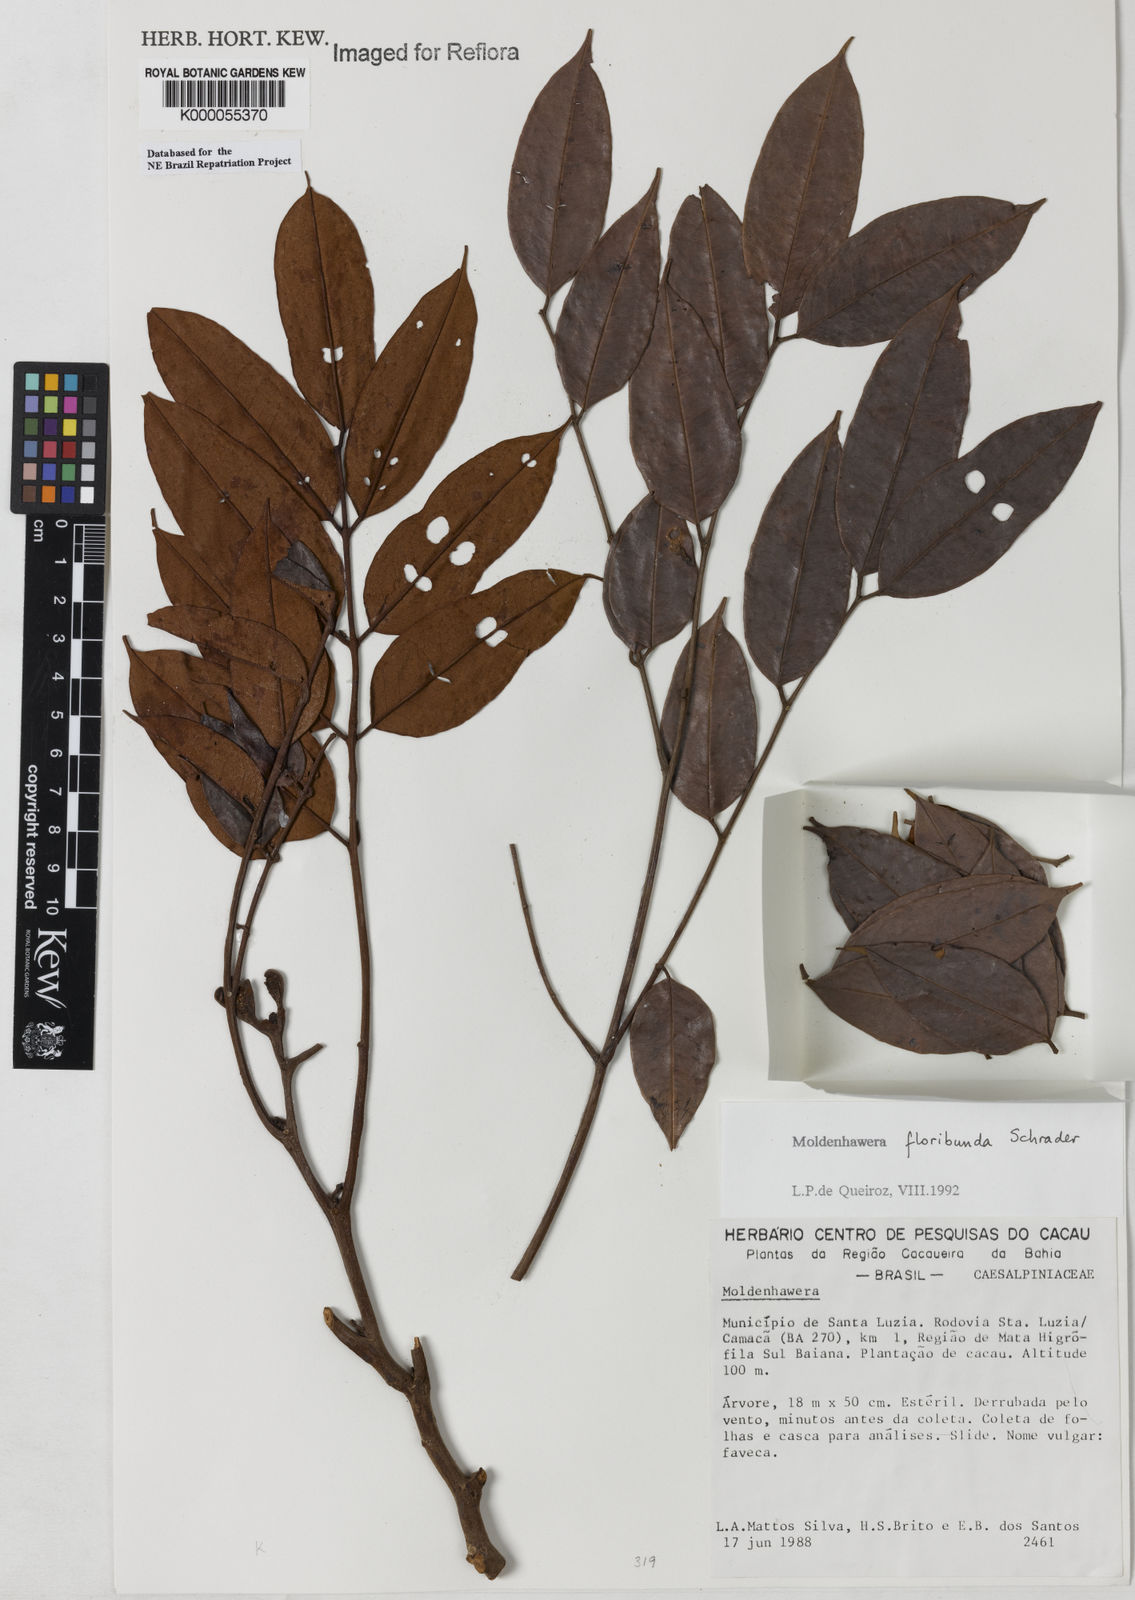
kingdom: Plantae
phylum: Tracheophyta
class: Magnoliopsida
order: Fabales
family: Fabaceae
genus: Moldenhawera
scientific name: Moldenhawera floribunda
